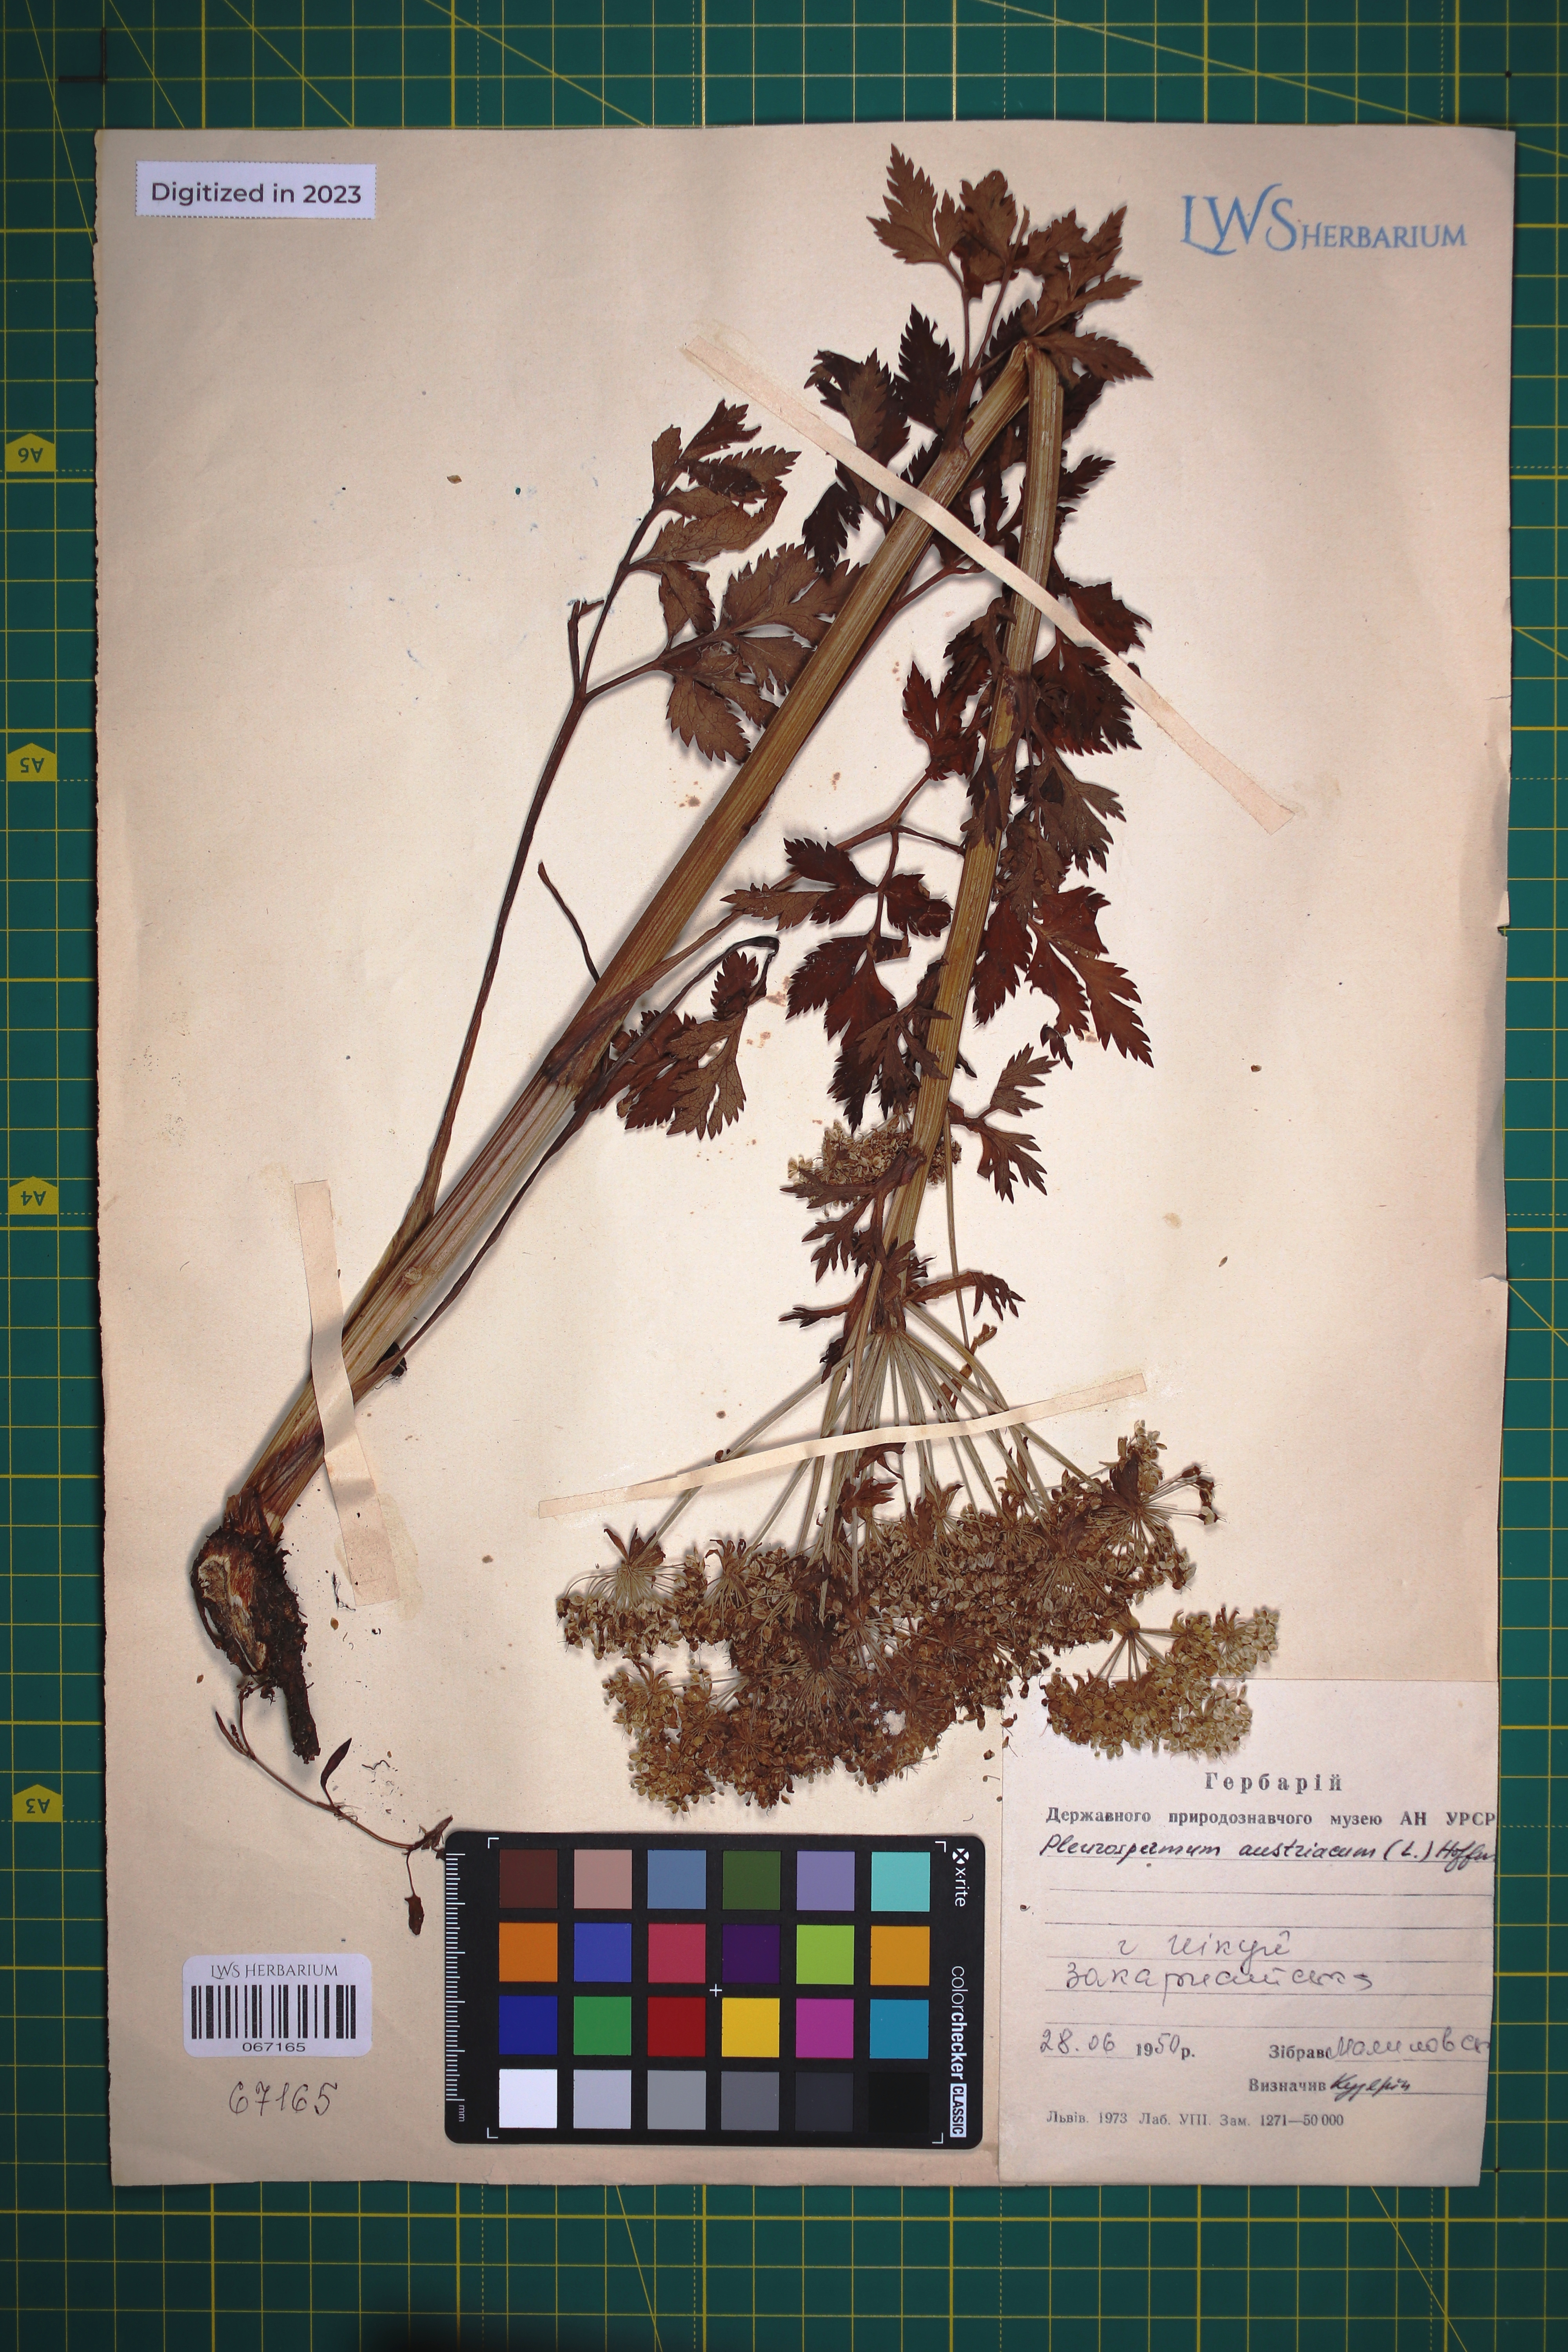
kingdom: Plantae
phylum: Tracheophyta
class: Magnoliopsida
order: Apiales
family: Apiaceae
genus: Pleurospermum
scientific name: Pleurospermum austriacum
